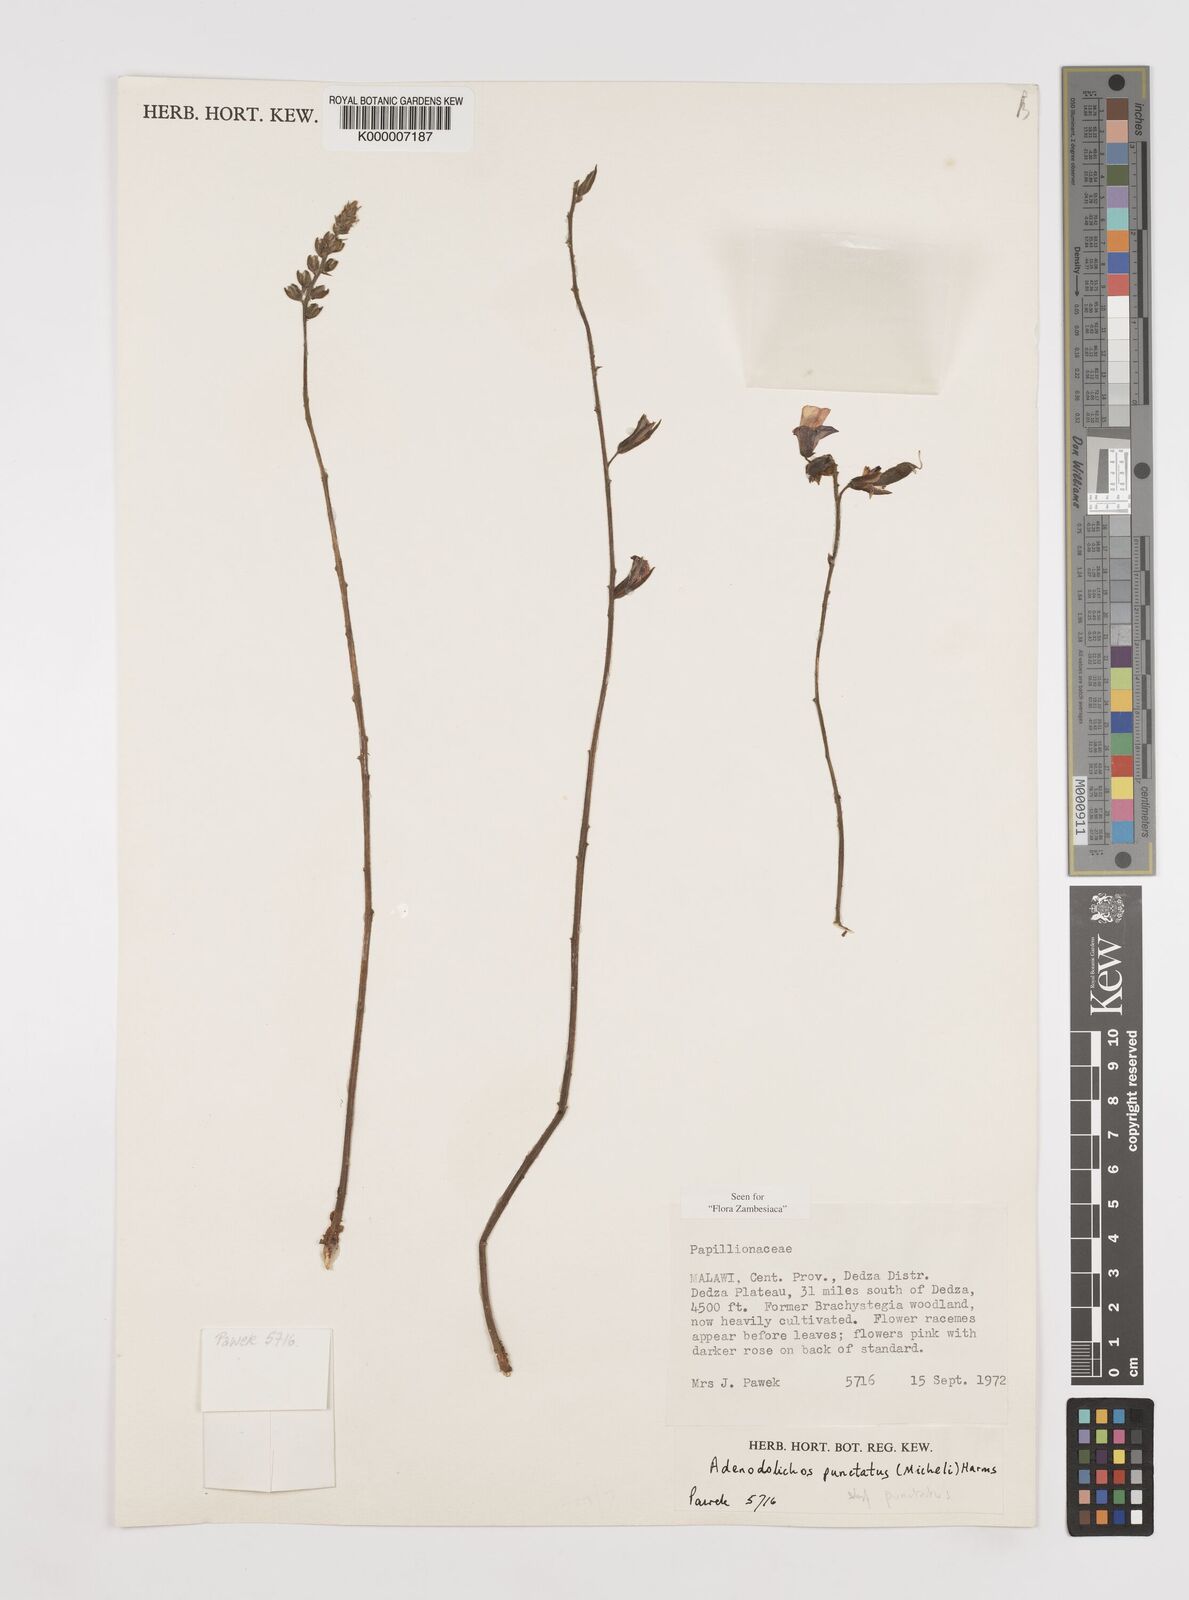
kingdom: Plantae
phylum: Tracheophyta
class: Magnoliopsida
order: Fabales
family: Fabaceae
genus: Adenodolichos
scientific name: Adenodolichos punctatus
